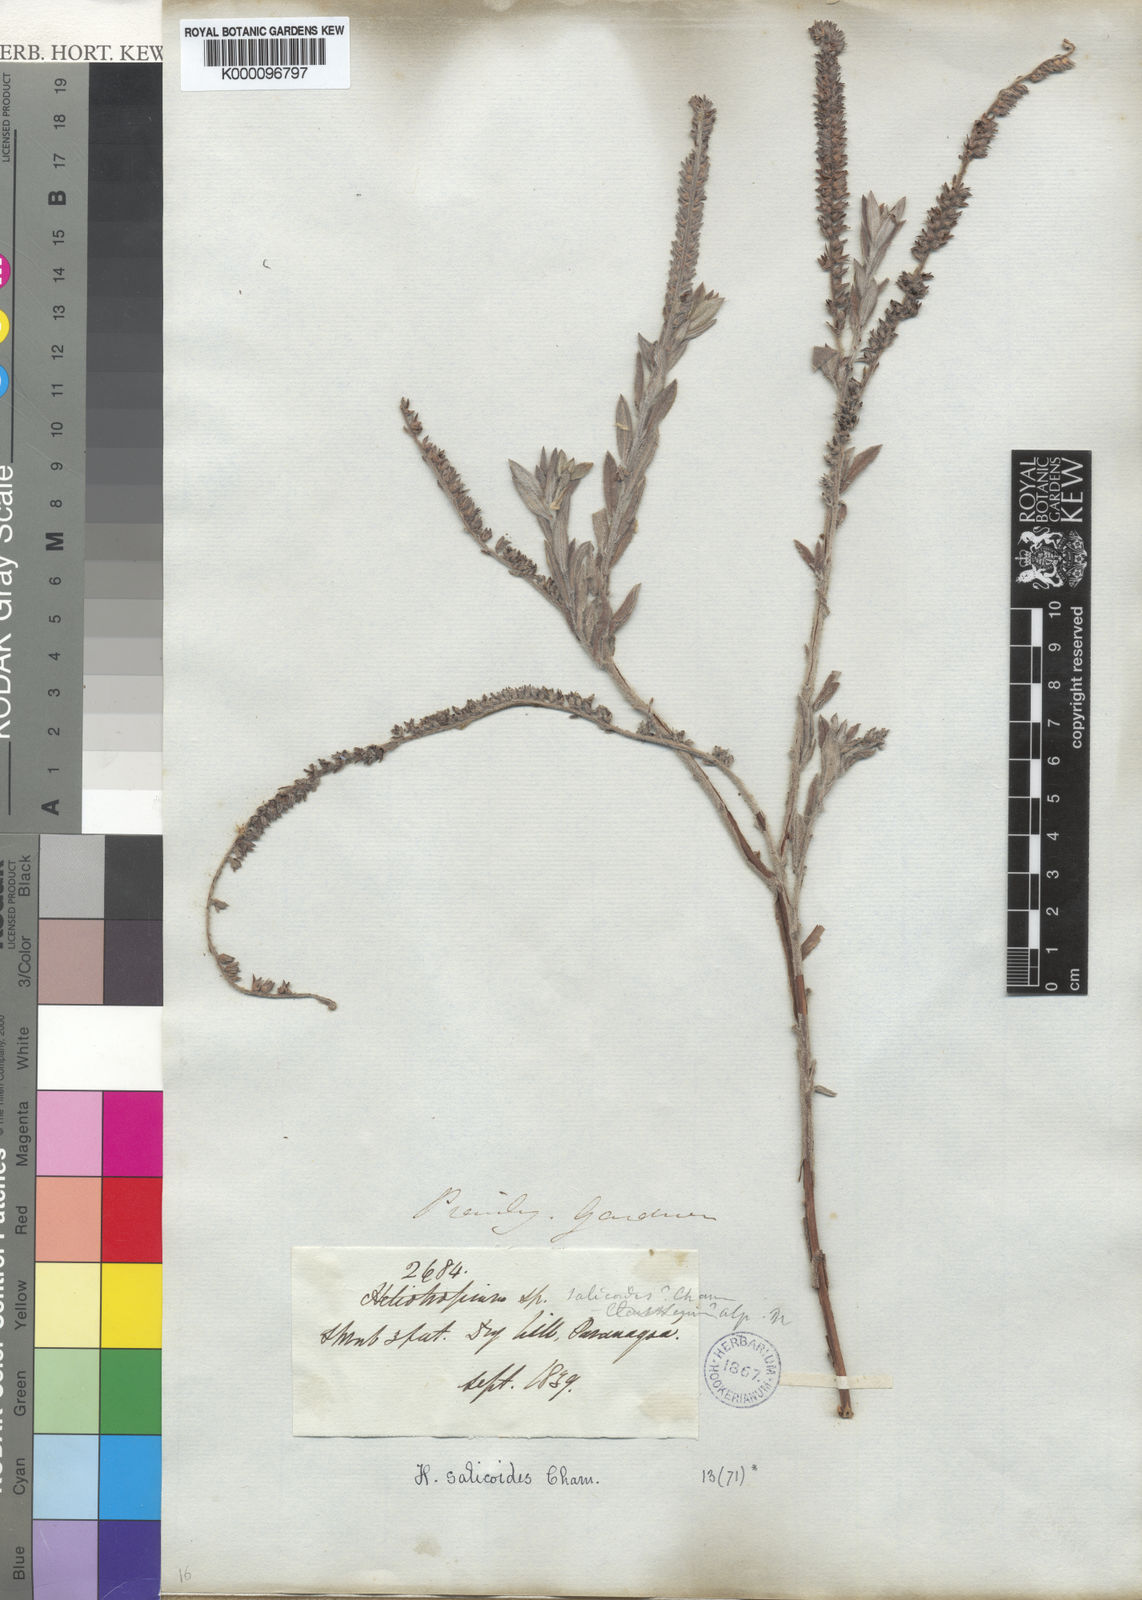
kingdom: Plantae
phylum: Tracheophyta
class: Magnoliopsida
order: Boraginales
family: Heliotropiaceae
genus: Heliotropium
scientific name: Heliotropium
